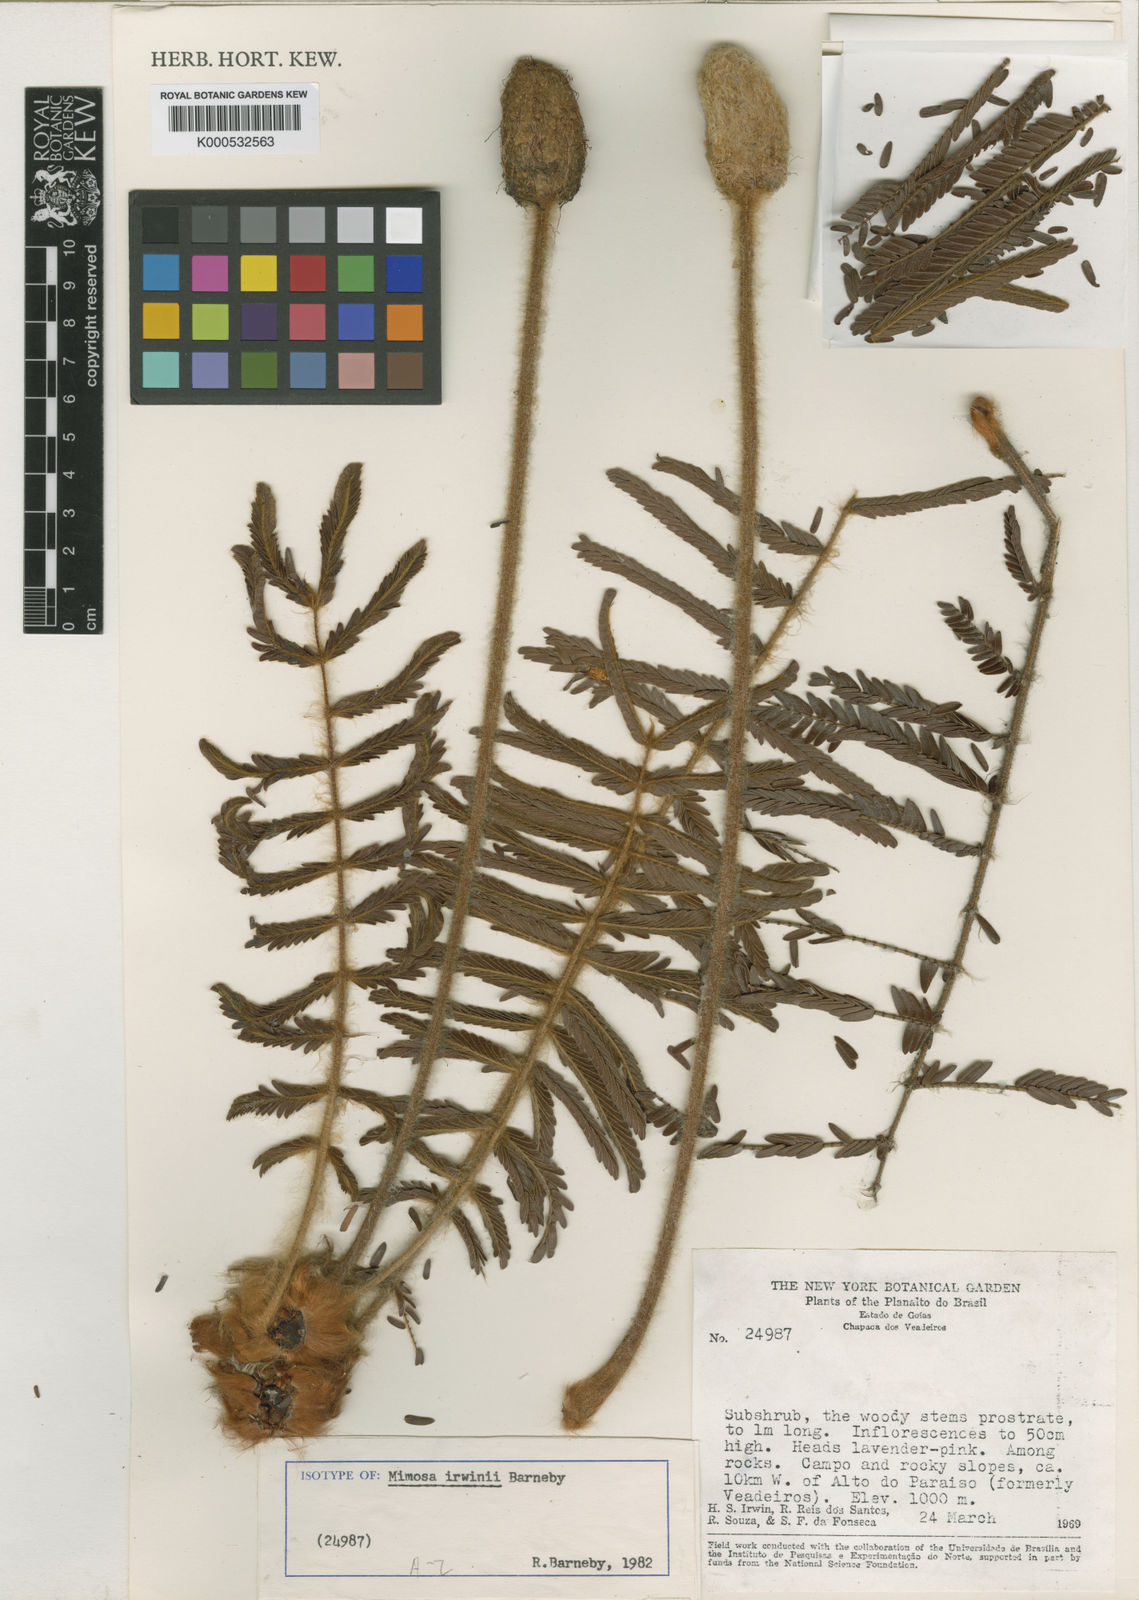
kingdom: Plantae
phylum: Tracheophyta
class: Magnoliopsida
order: Fabales
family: Fabaceae
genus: Mimosa
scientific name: Mimosa irwinii
